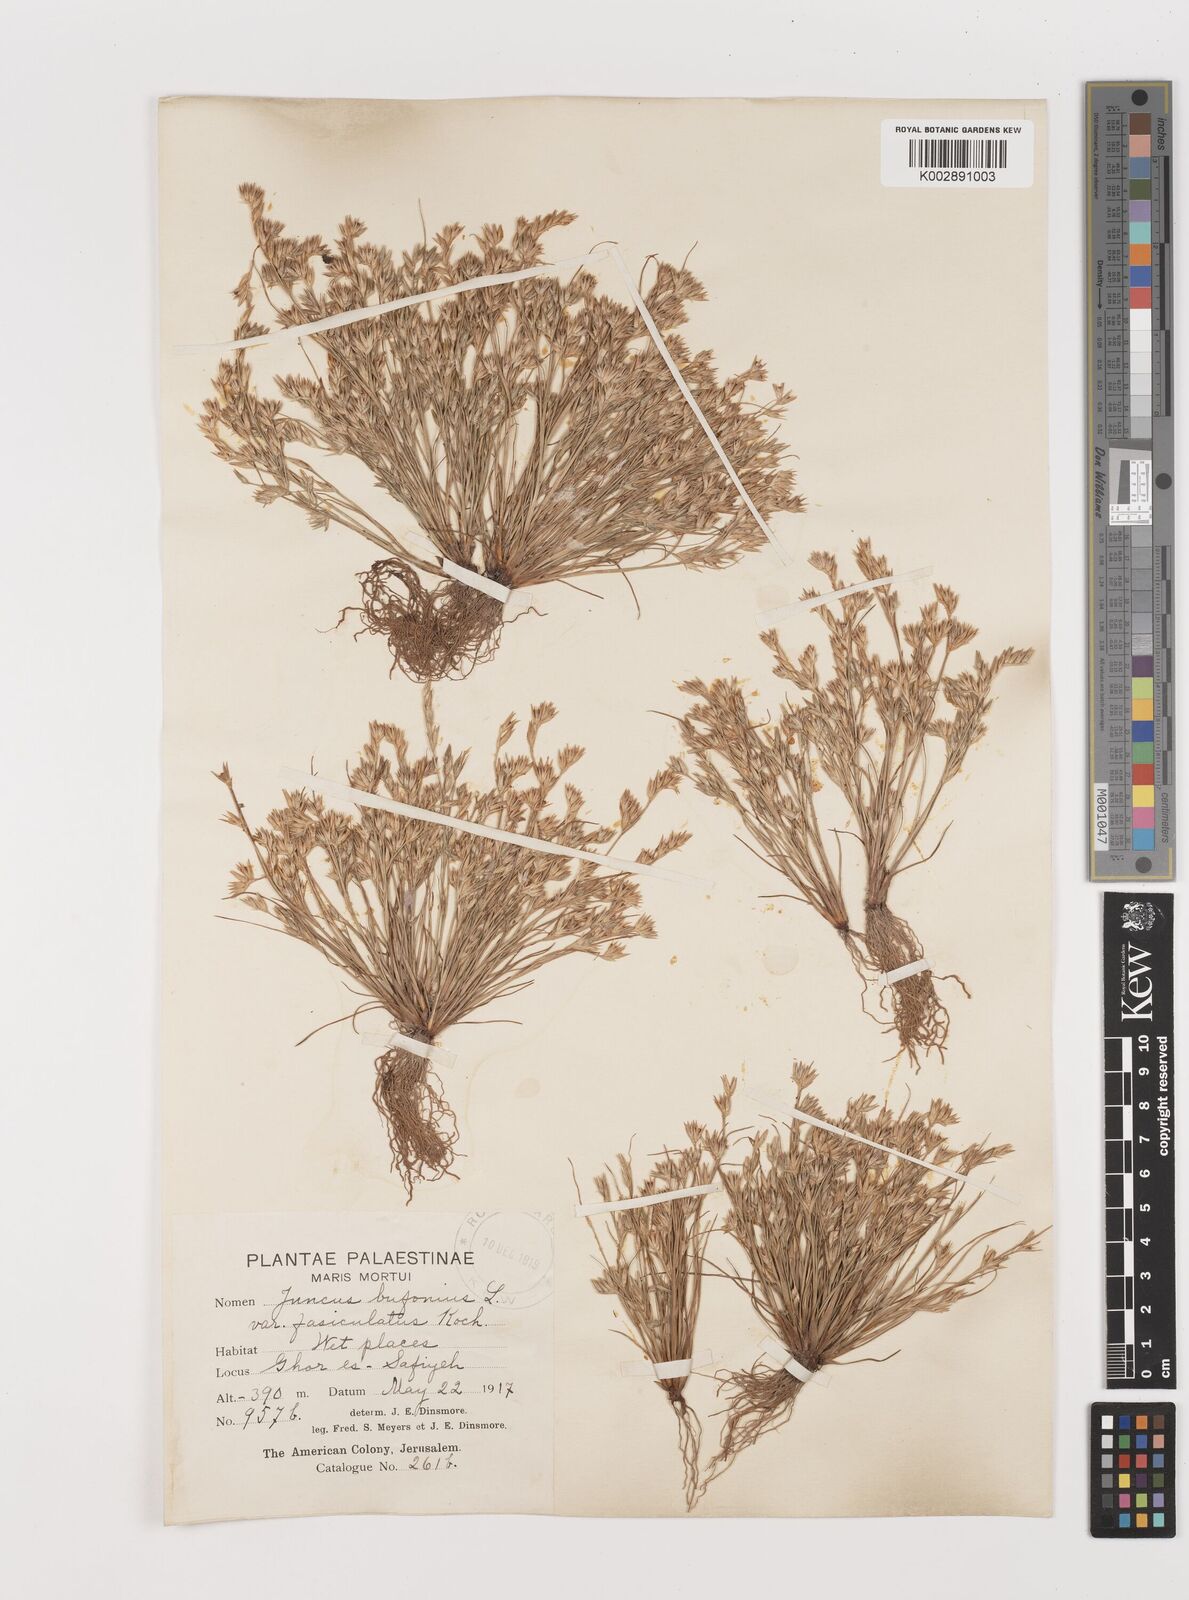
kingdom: Plantae
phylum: Tracheophyta
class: Liliopsida
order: Poales
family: Juncaceae
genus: Juncus
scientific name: Juncus bufonius
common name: Toad rush
